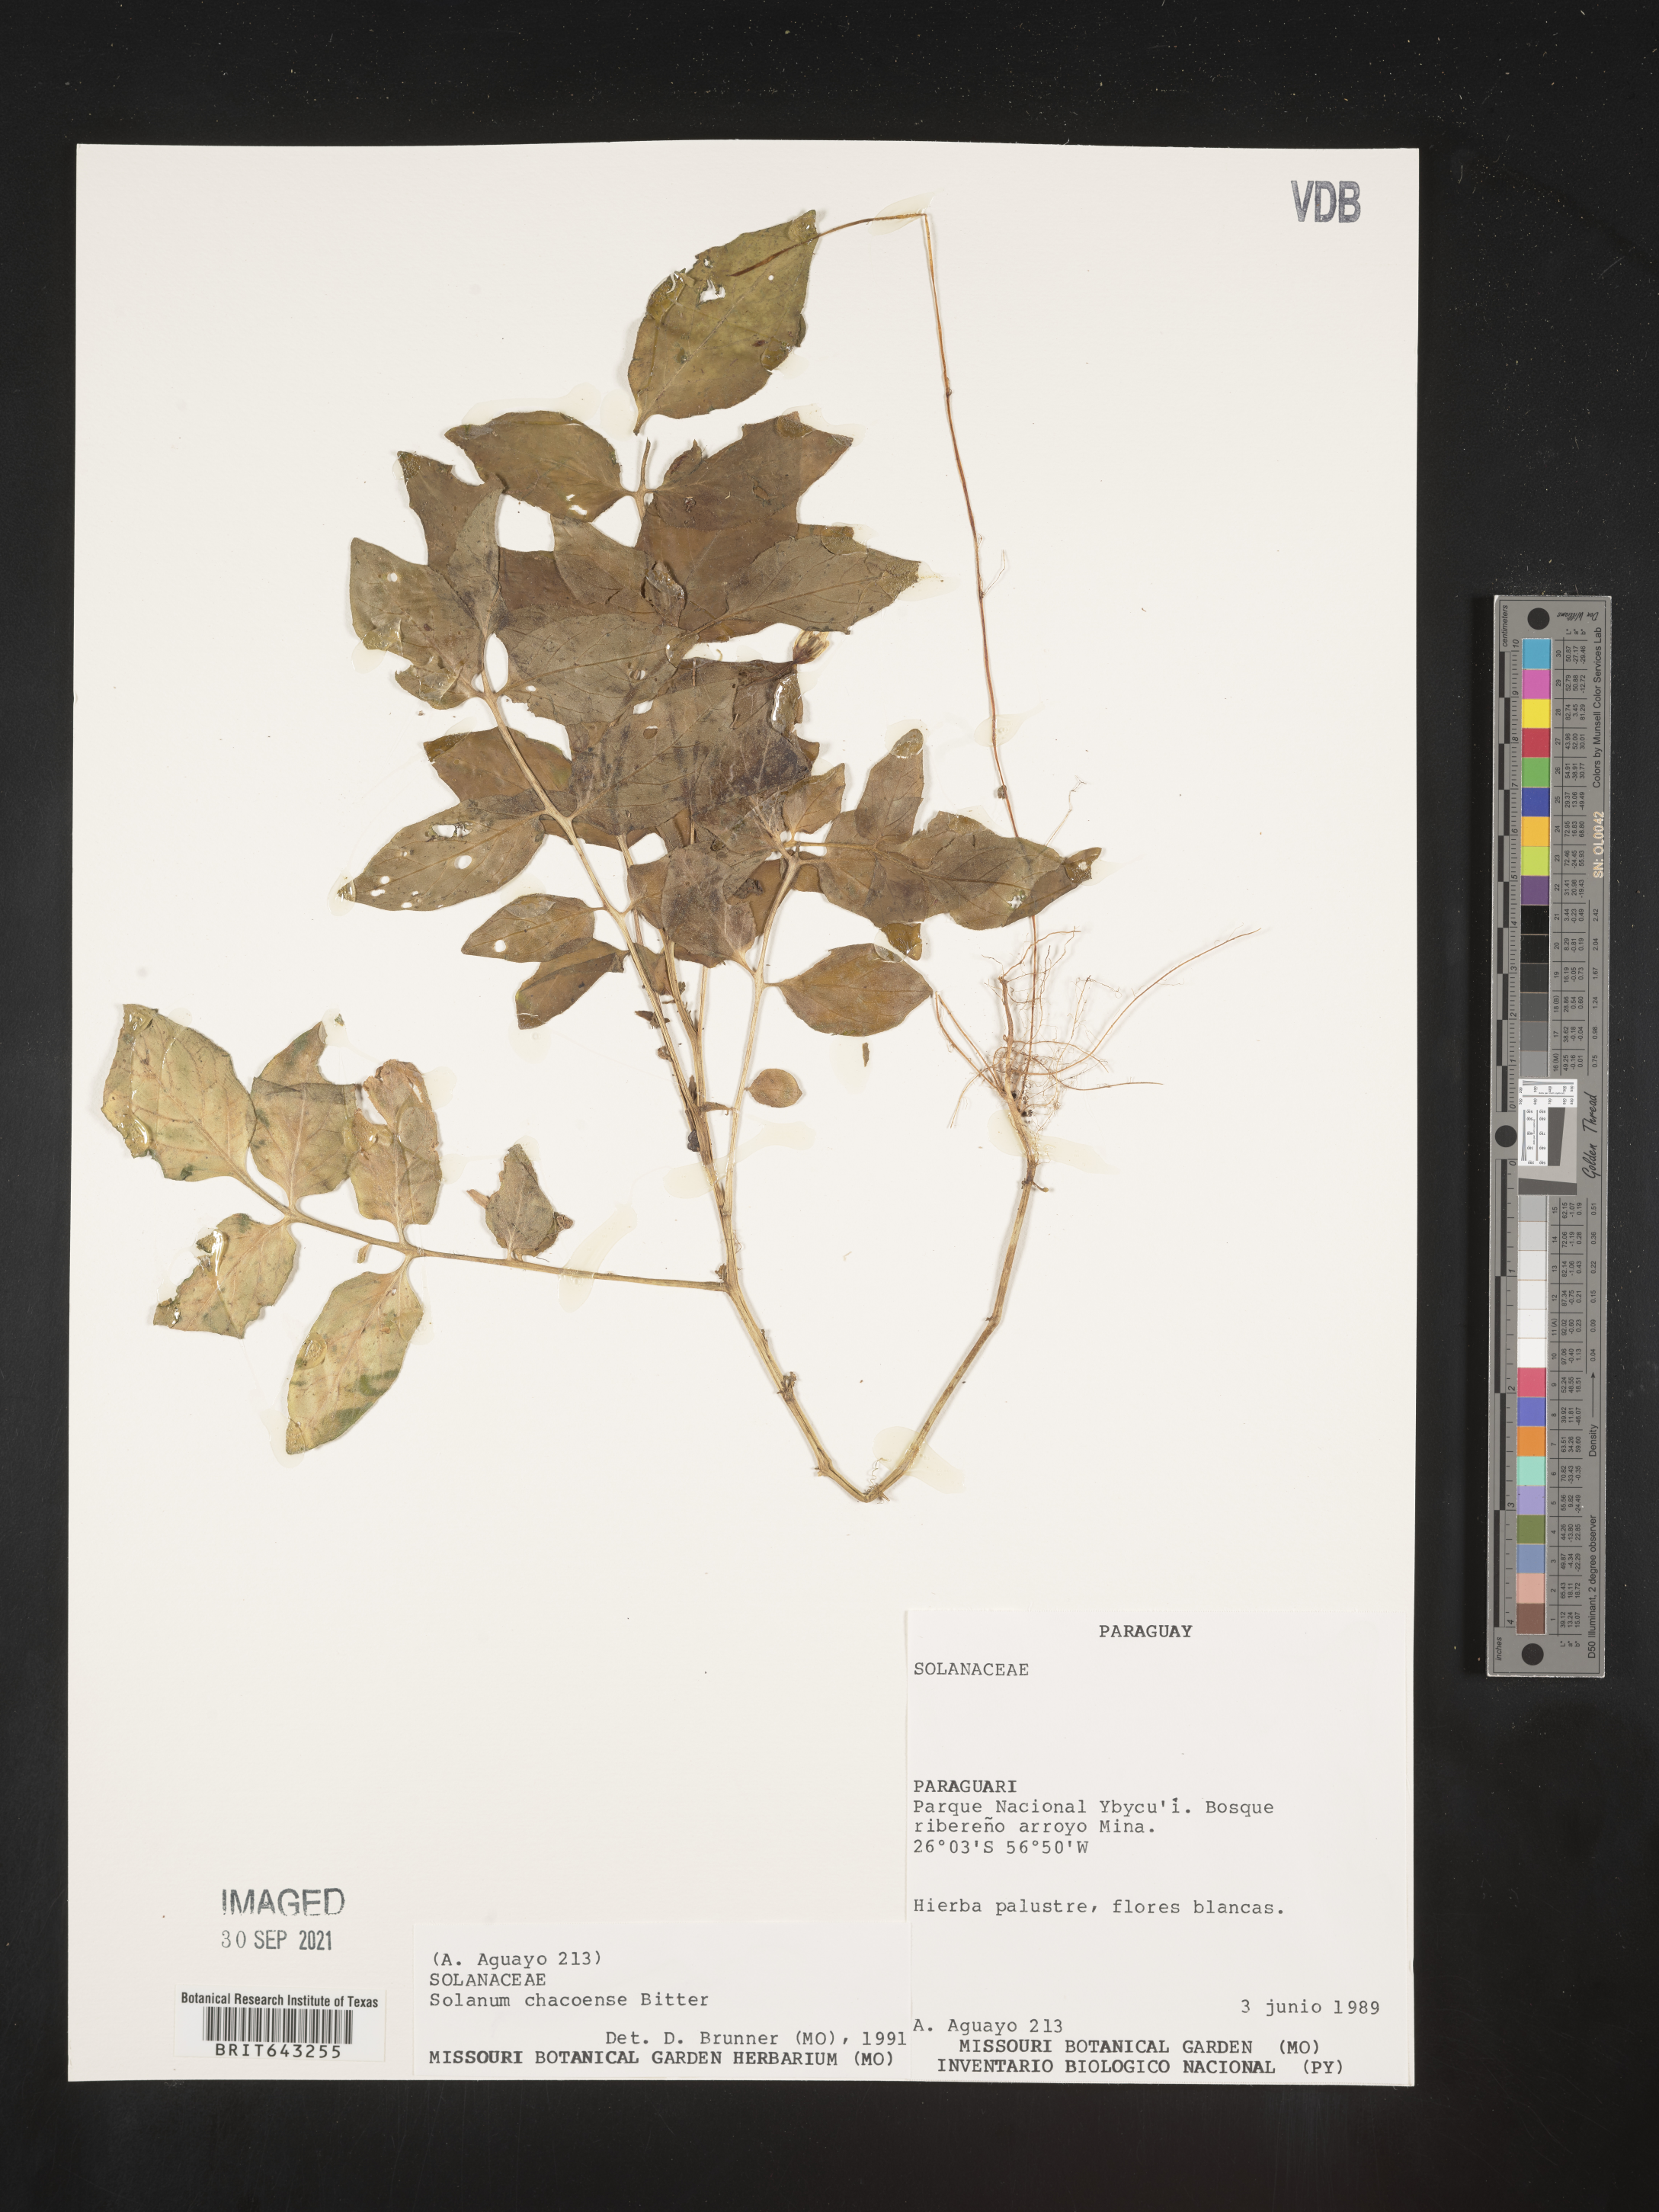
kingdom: Plantae
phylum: Tracheophyta
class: Magnoliopsida
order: Solanales
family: Solanaceae
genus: Solanum
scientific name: Solanum
